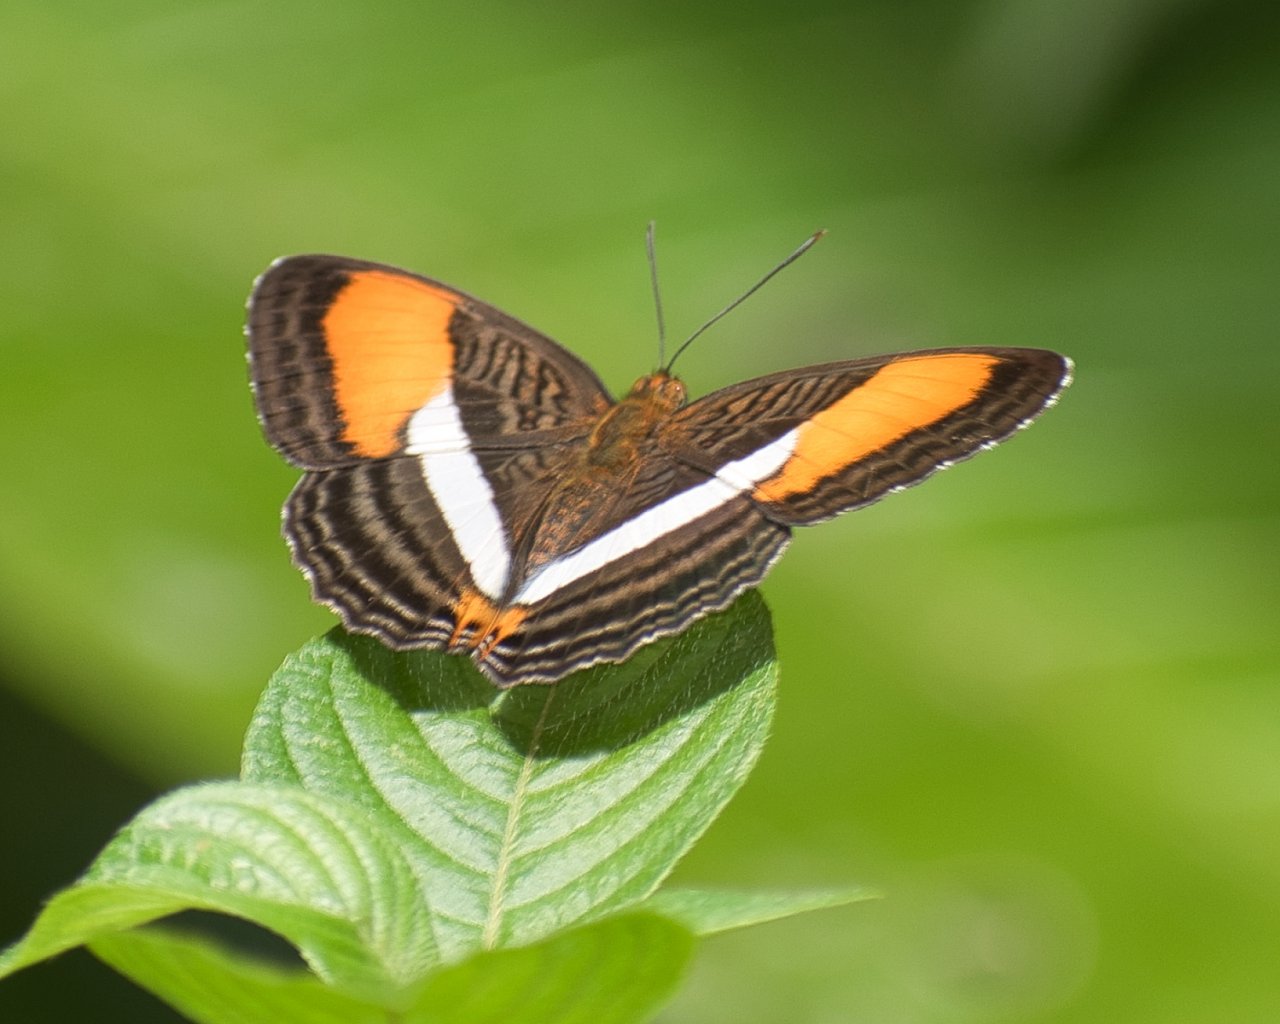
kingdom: Animalia
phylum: Arthropoda
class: Insecta
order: Lepidoptera
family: Nymphalidae
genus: Limenitis
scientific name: Limenitis cytherea
